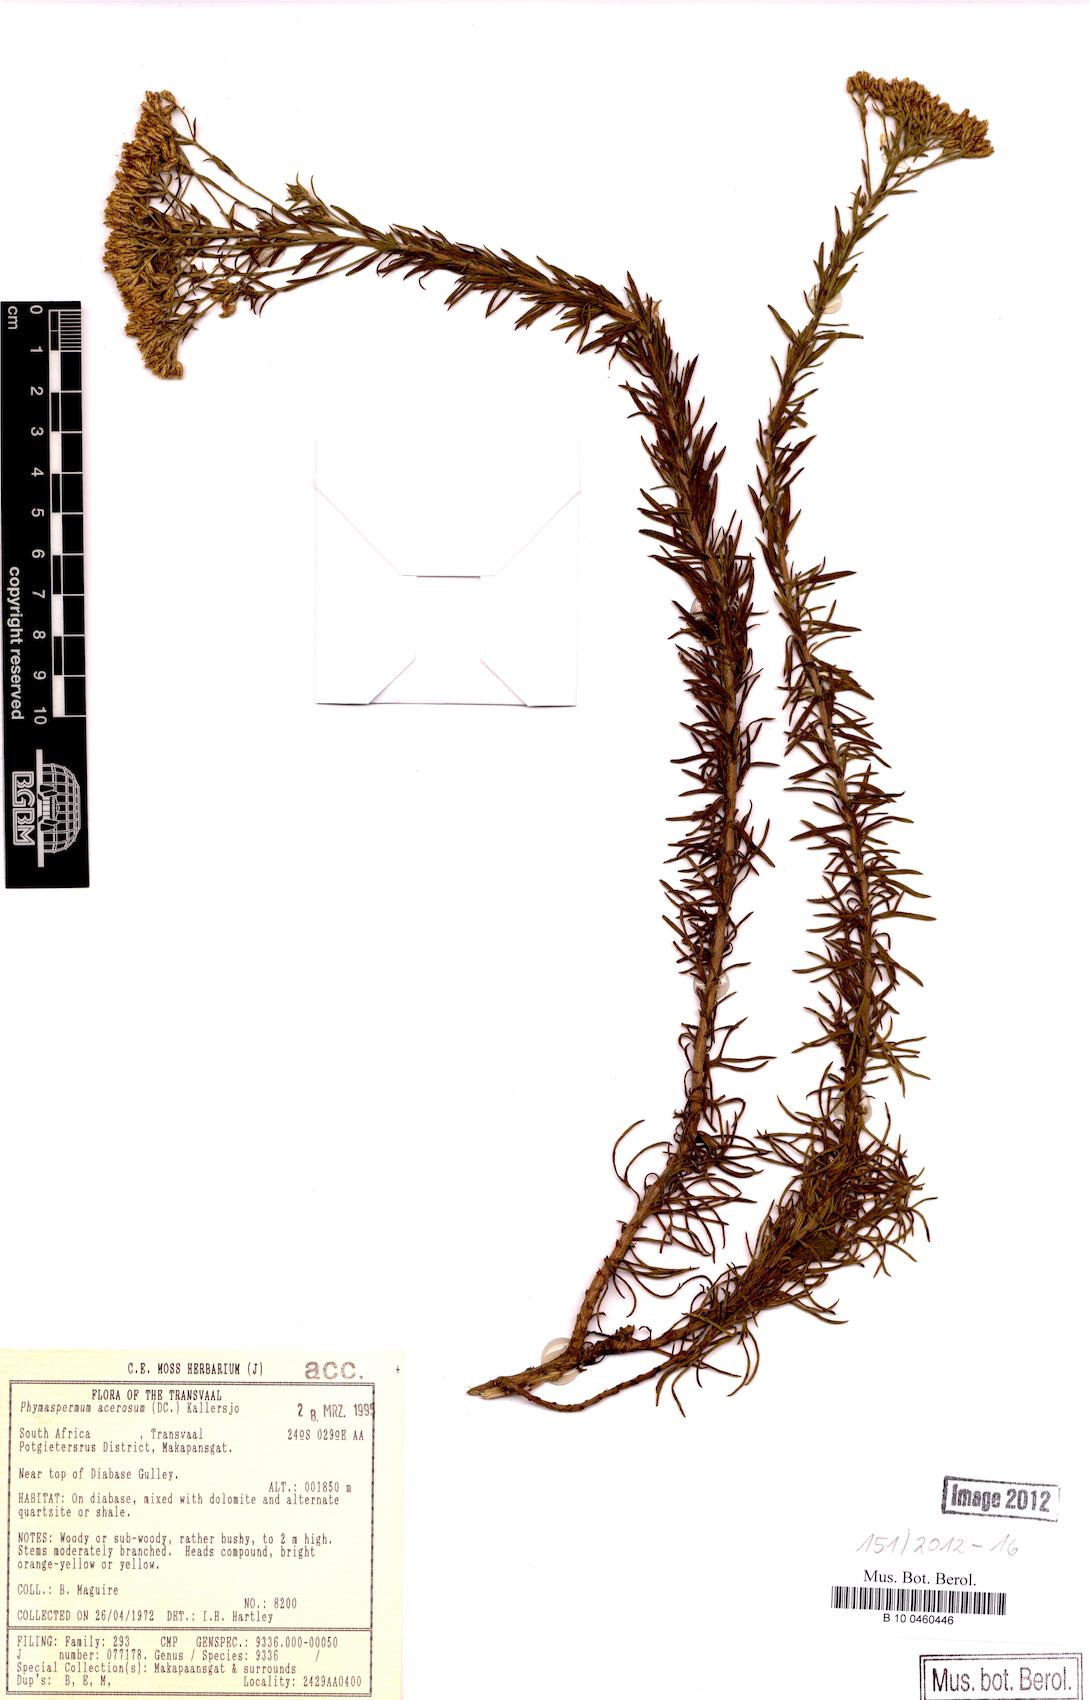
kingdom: Plantae
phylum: Tracheophyta
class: Magnoliopsida
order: Asterales
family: Asteraceae
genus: Phymaspermum
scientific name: Phymaspermum acerosum
